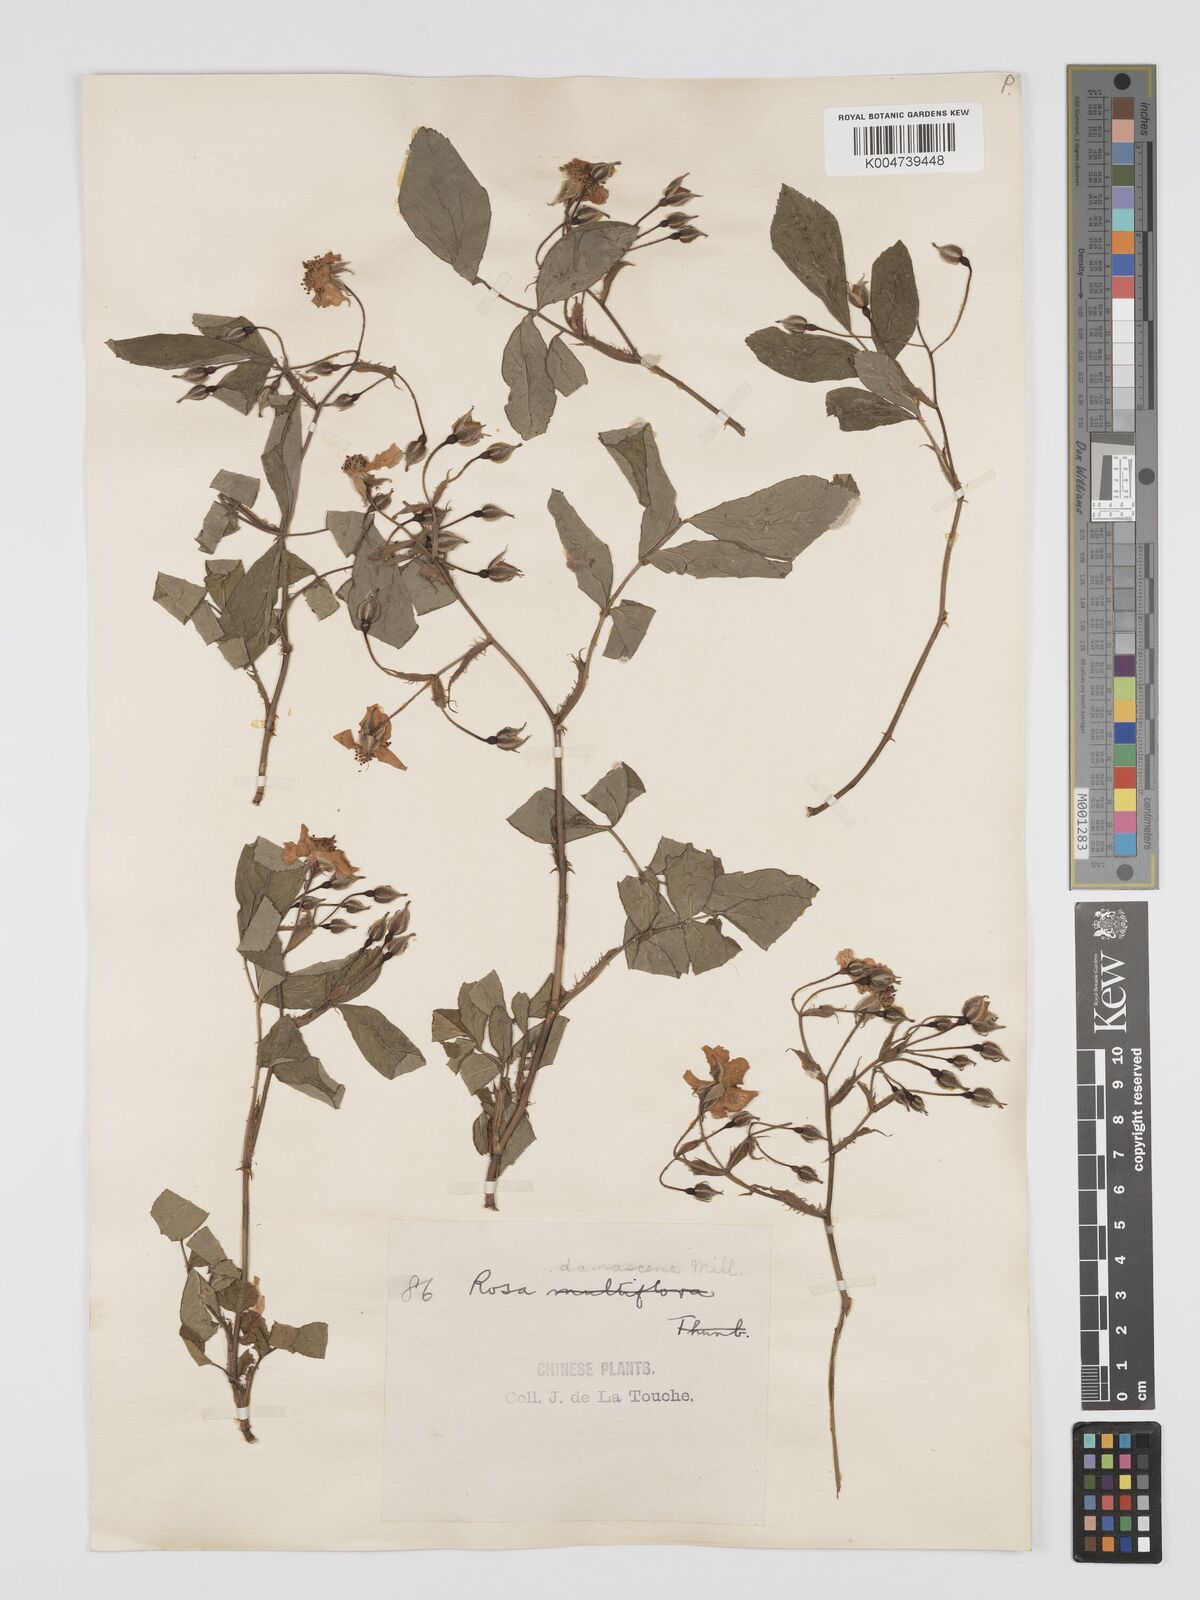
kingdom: Plantae
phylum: Tracheophyta
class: Magnoliopsida
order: Rosales
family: Rosaceae
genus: Rosa
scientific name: Rosa
